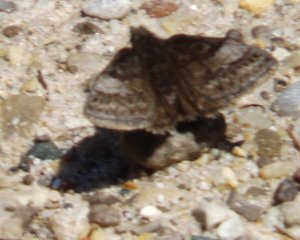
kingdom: Animalia
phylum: Arthropoda
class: Insecta
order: Lepidoptera
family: Hesperiidae
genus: Erynnis
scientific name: Erynnis icelus
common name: Dreamy Duskywing
